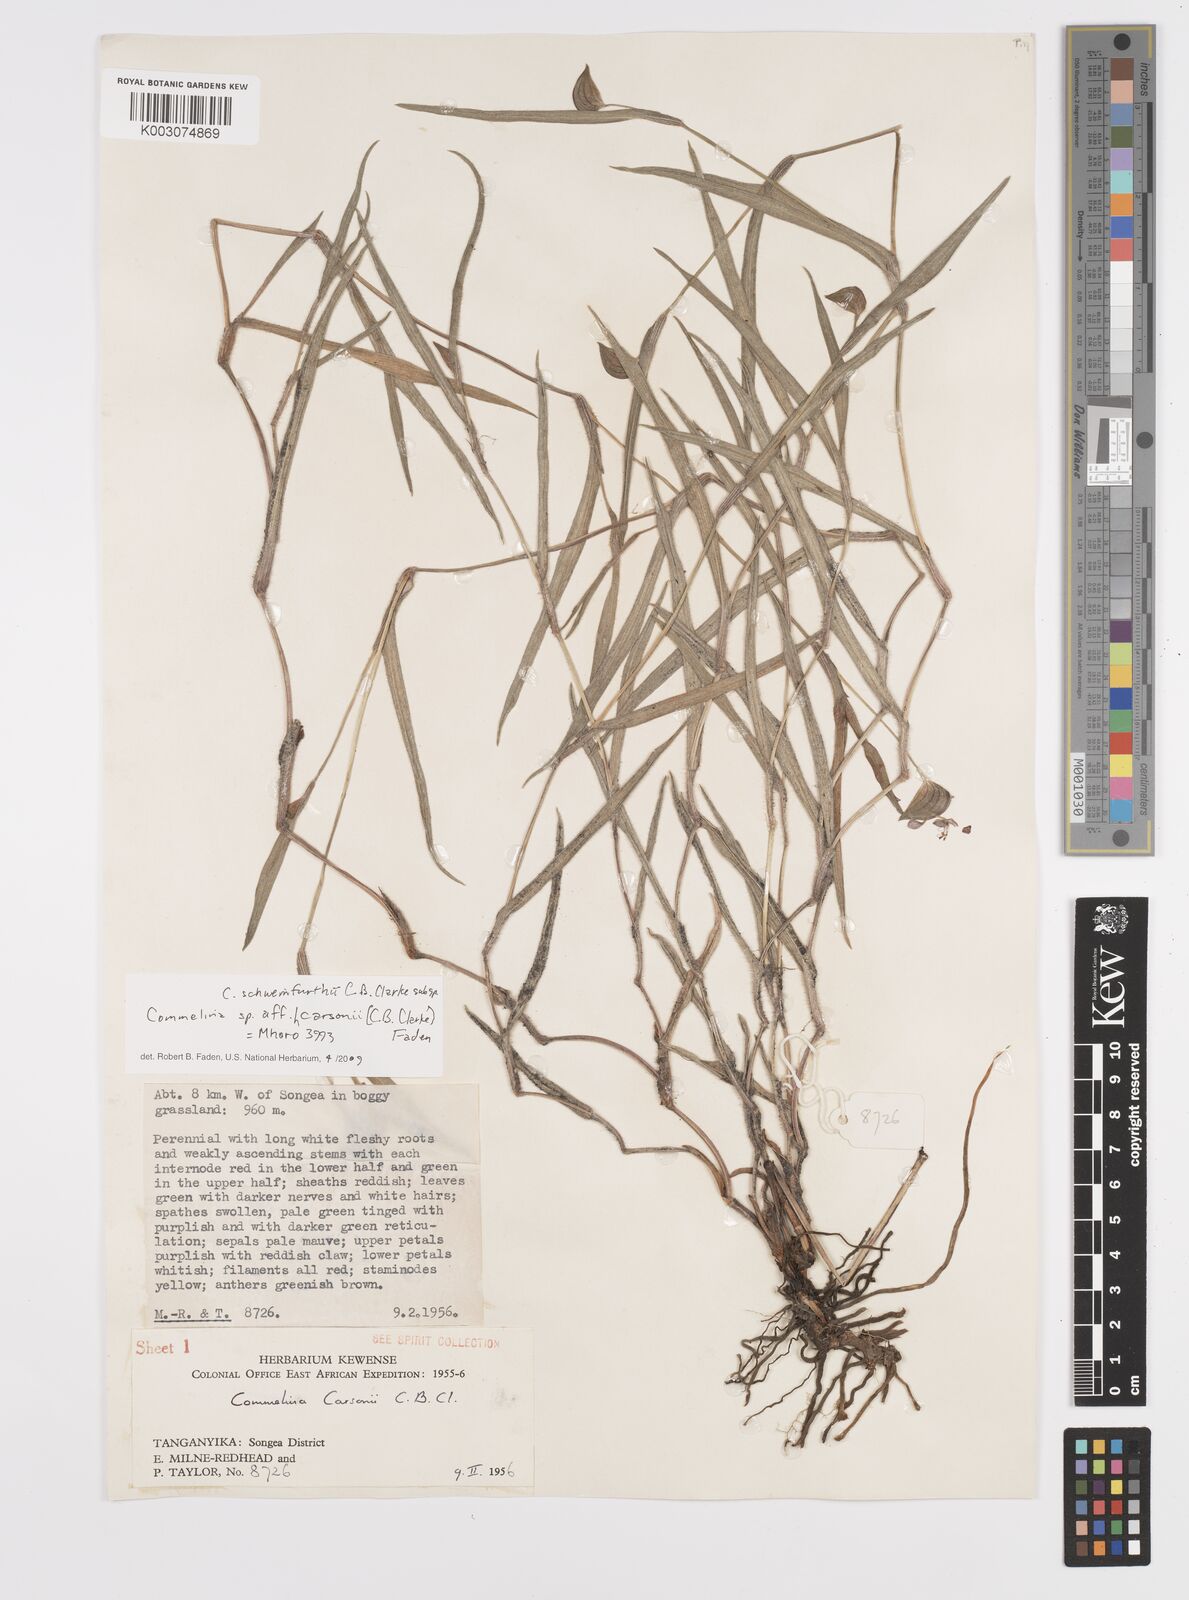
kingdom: Plantae
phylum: Tracheophyta
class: Liliopsida
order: Commelinales
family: Commelinaceae
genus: Commelina
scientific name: Commelina schweinfurthii
